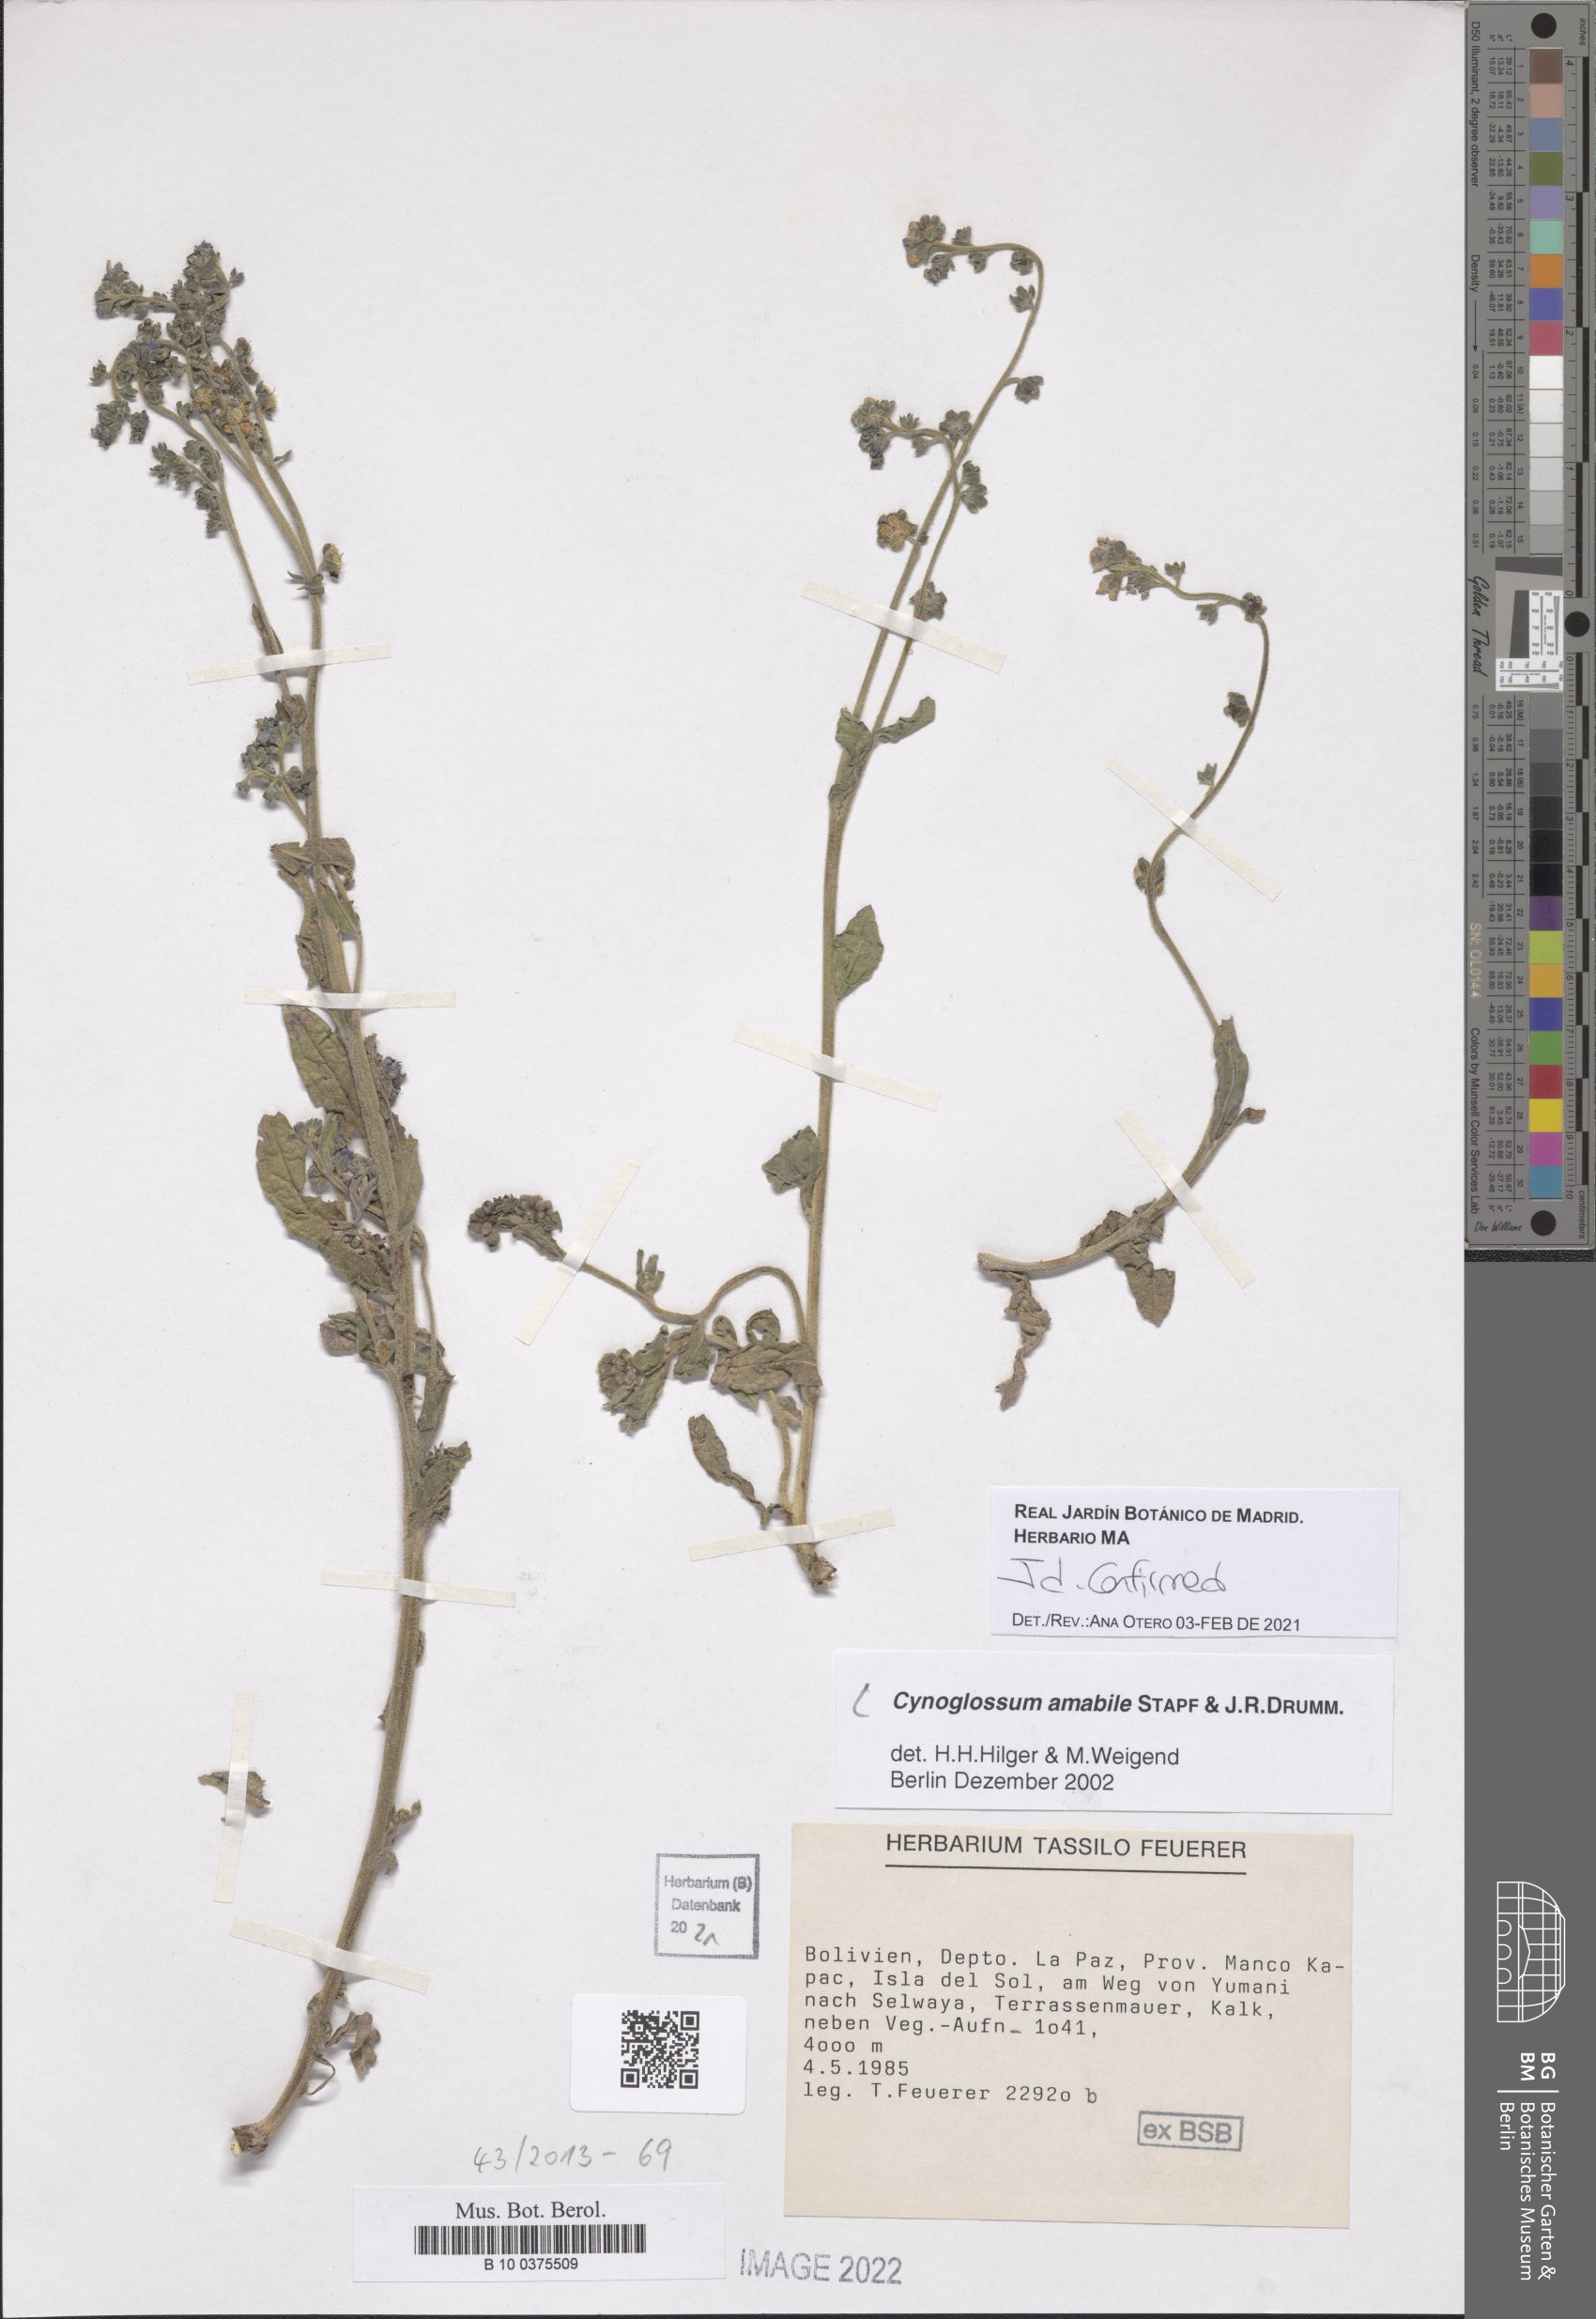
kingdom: Plantae
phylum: Tracheophyta
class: Magnoliopsida
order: Boraginales
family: Boraginaceae
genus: Cynoglossum
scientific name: Cynoglossum amabile
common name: Chinese hound's tongue
